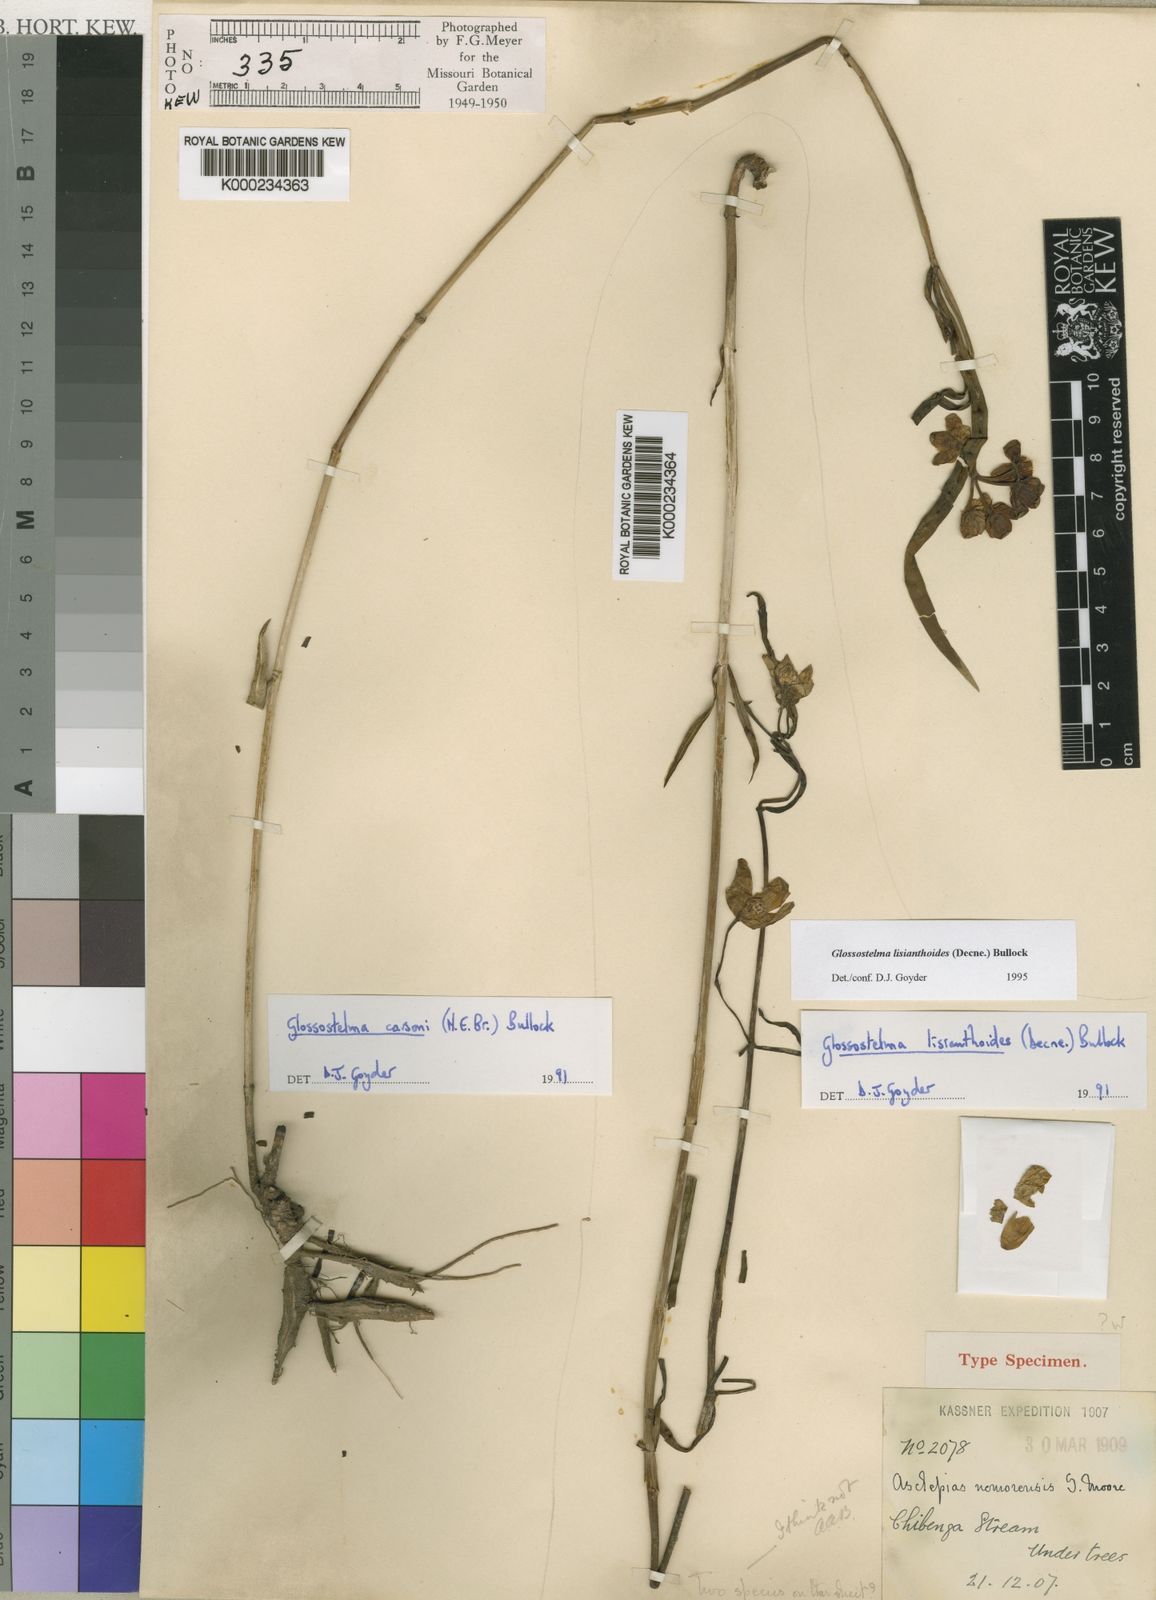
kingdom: Plantae
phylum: Tracheophyta
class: Magnoliopsida
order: Gentianales
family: Apocynaceae
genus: Glossostelma
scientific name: Glossostelma lisianthoides
